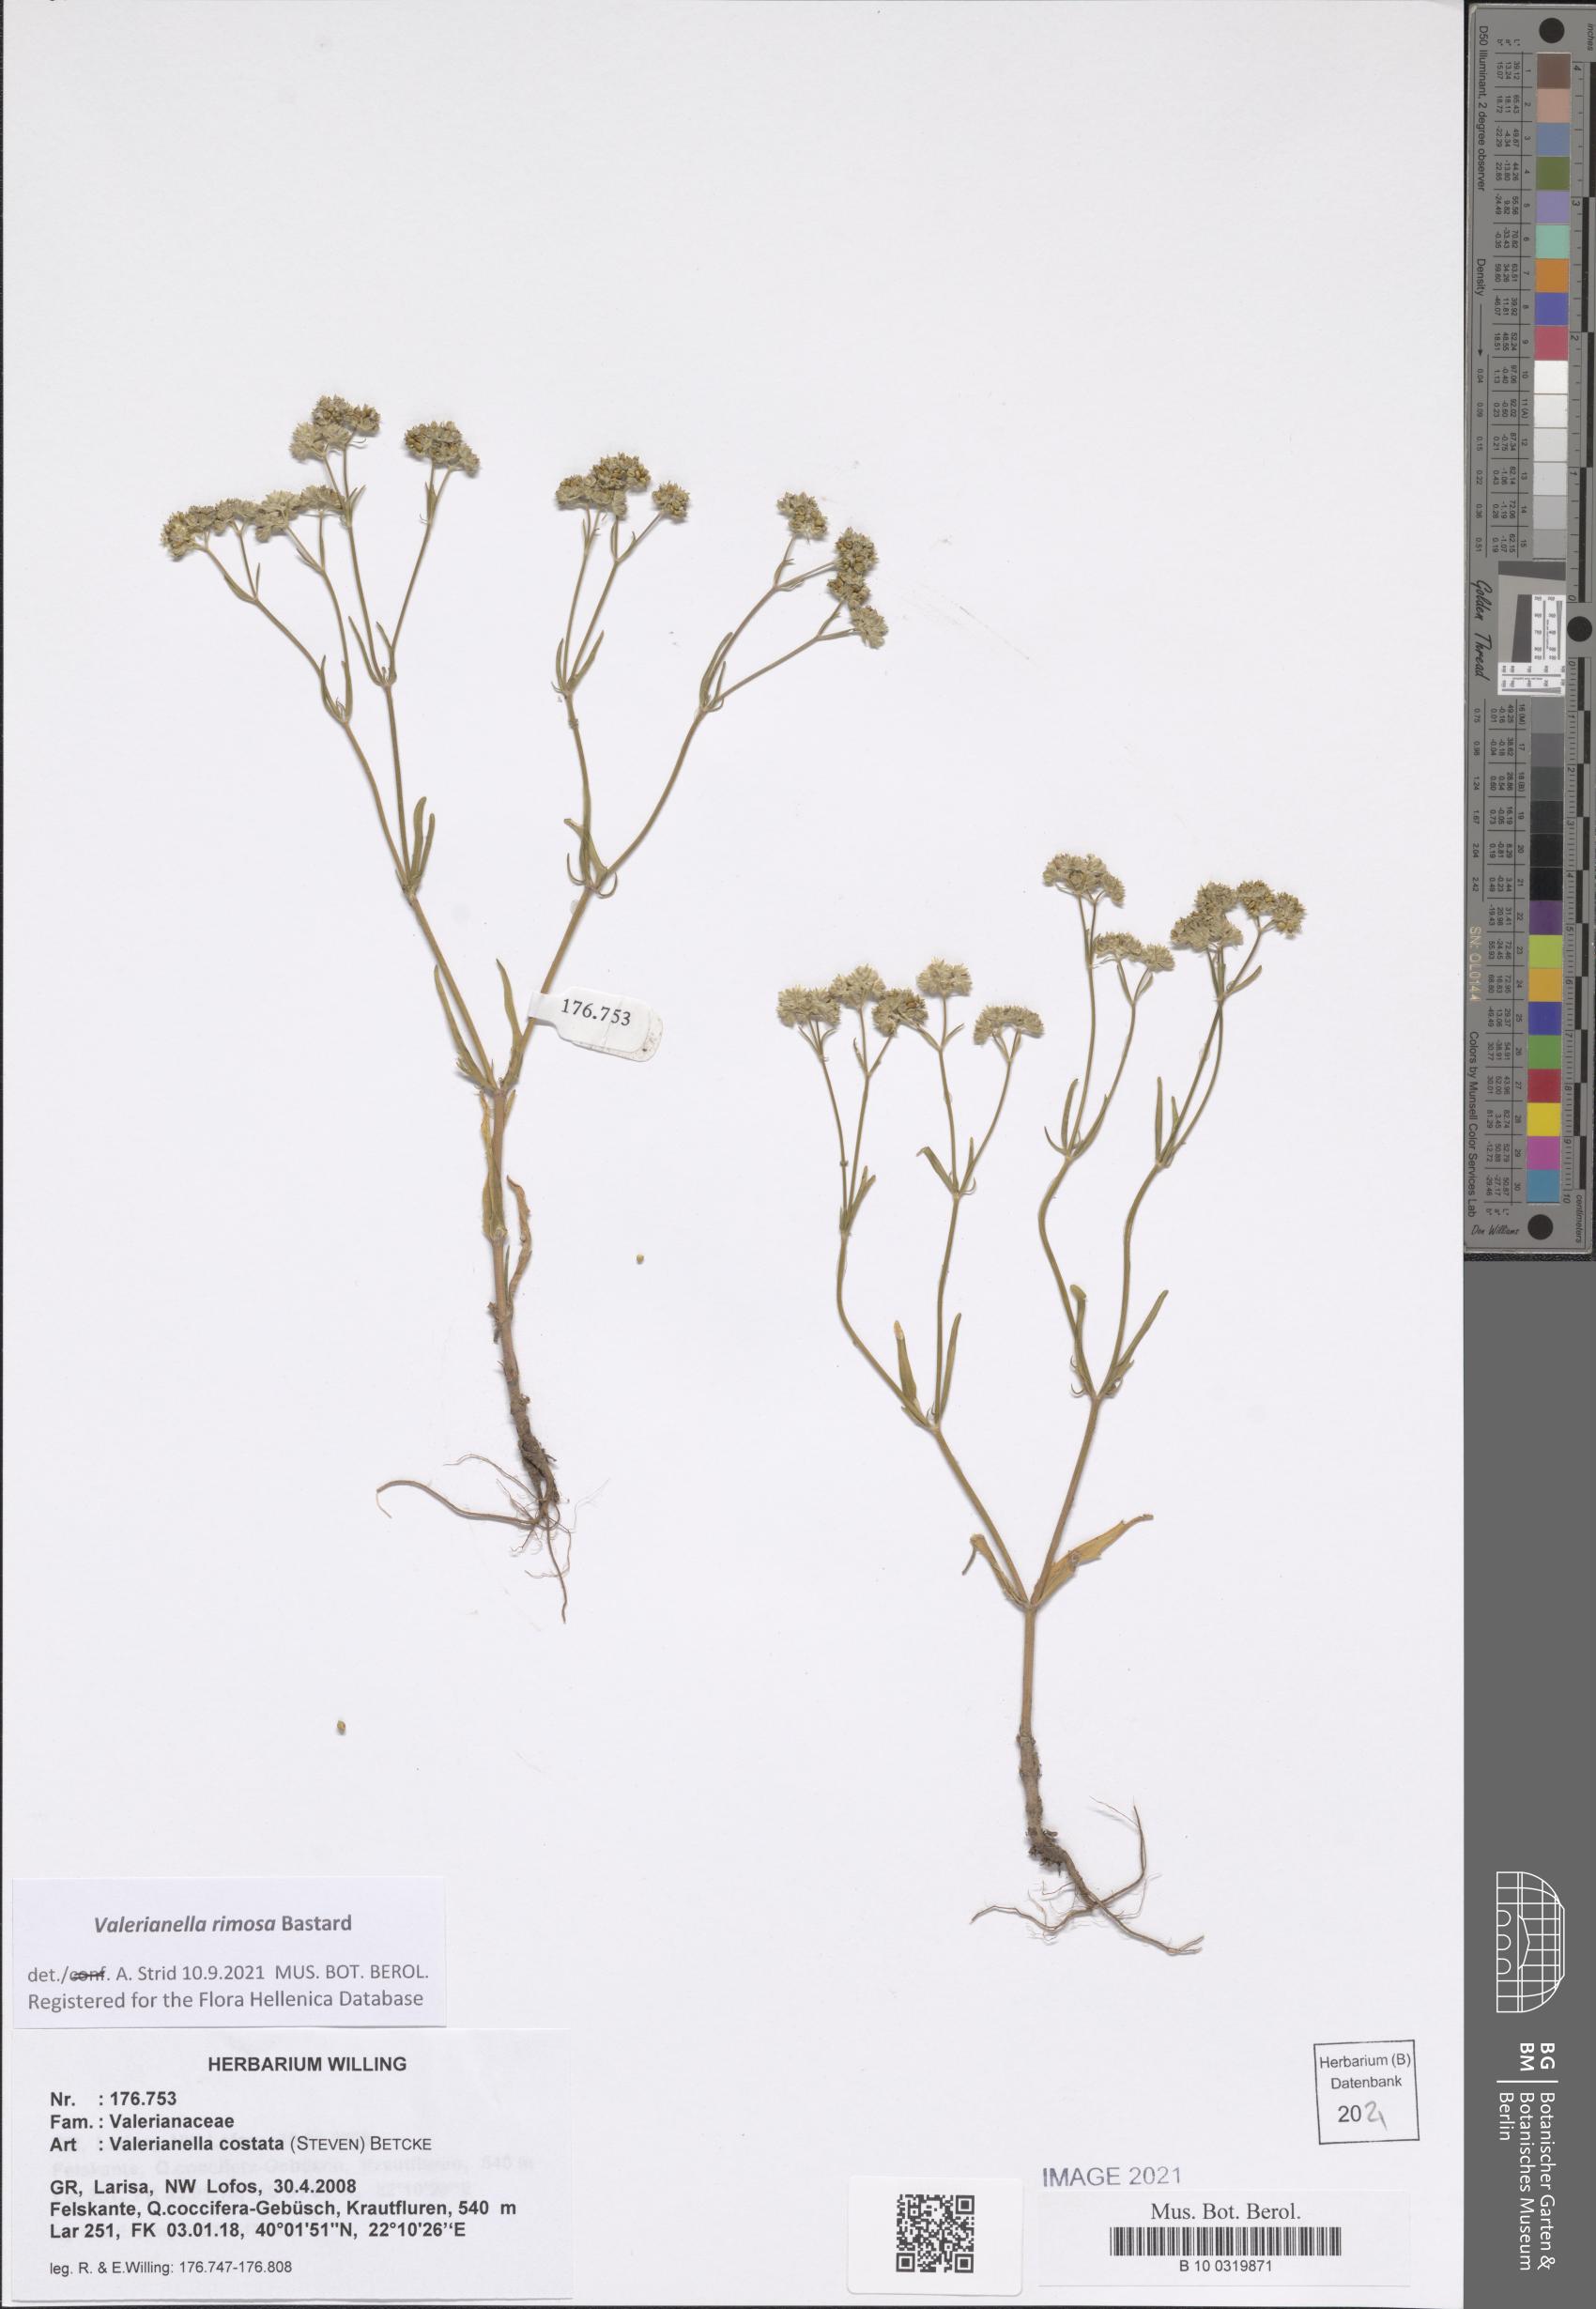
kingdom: Plantae
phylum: Tracheophyta
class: Magnoliopsida
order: Dipsacales
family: Caprifoliaceae
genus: Valerianella
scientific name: Valerianella rimosa
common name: Broad-fruited cornsalad
